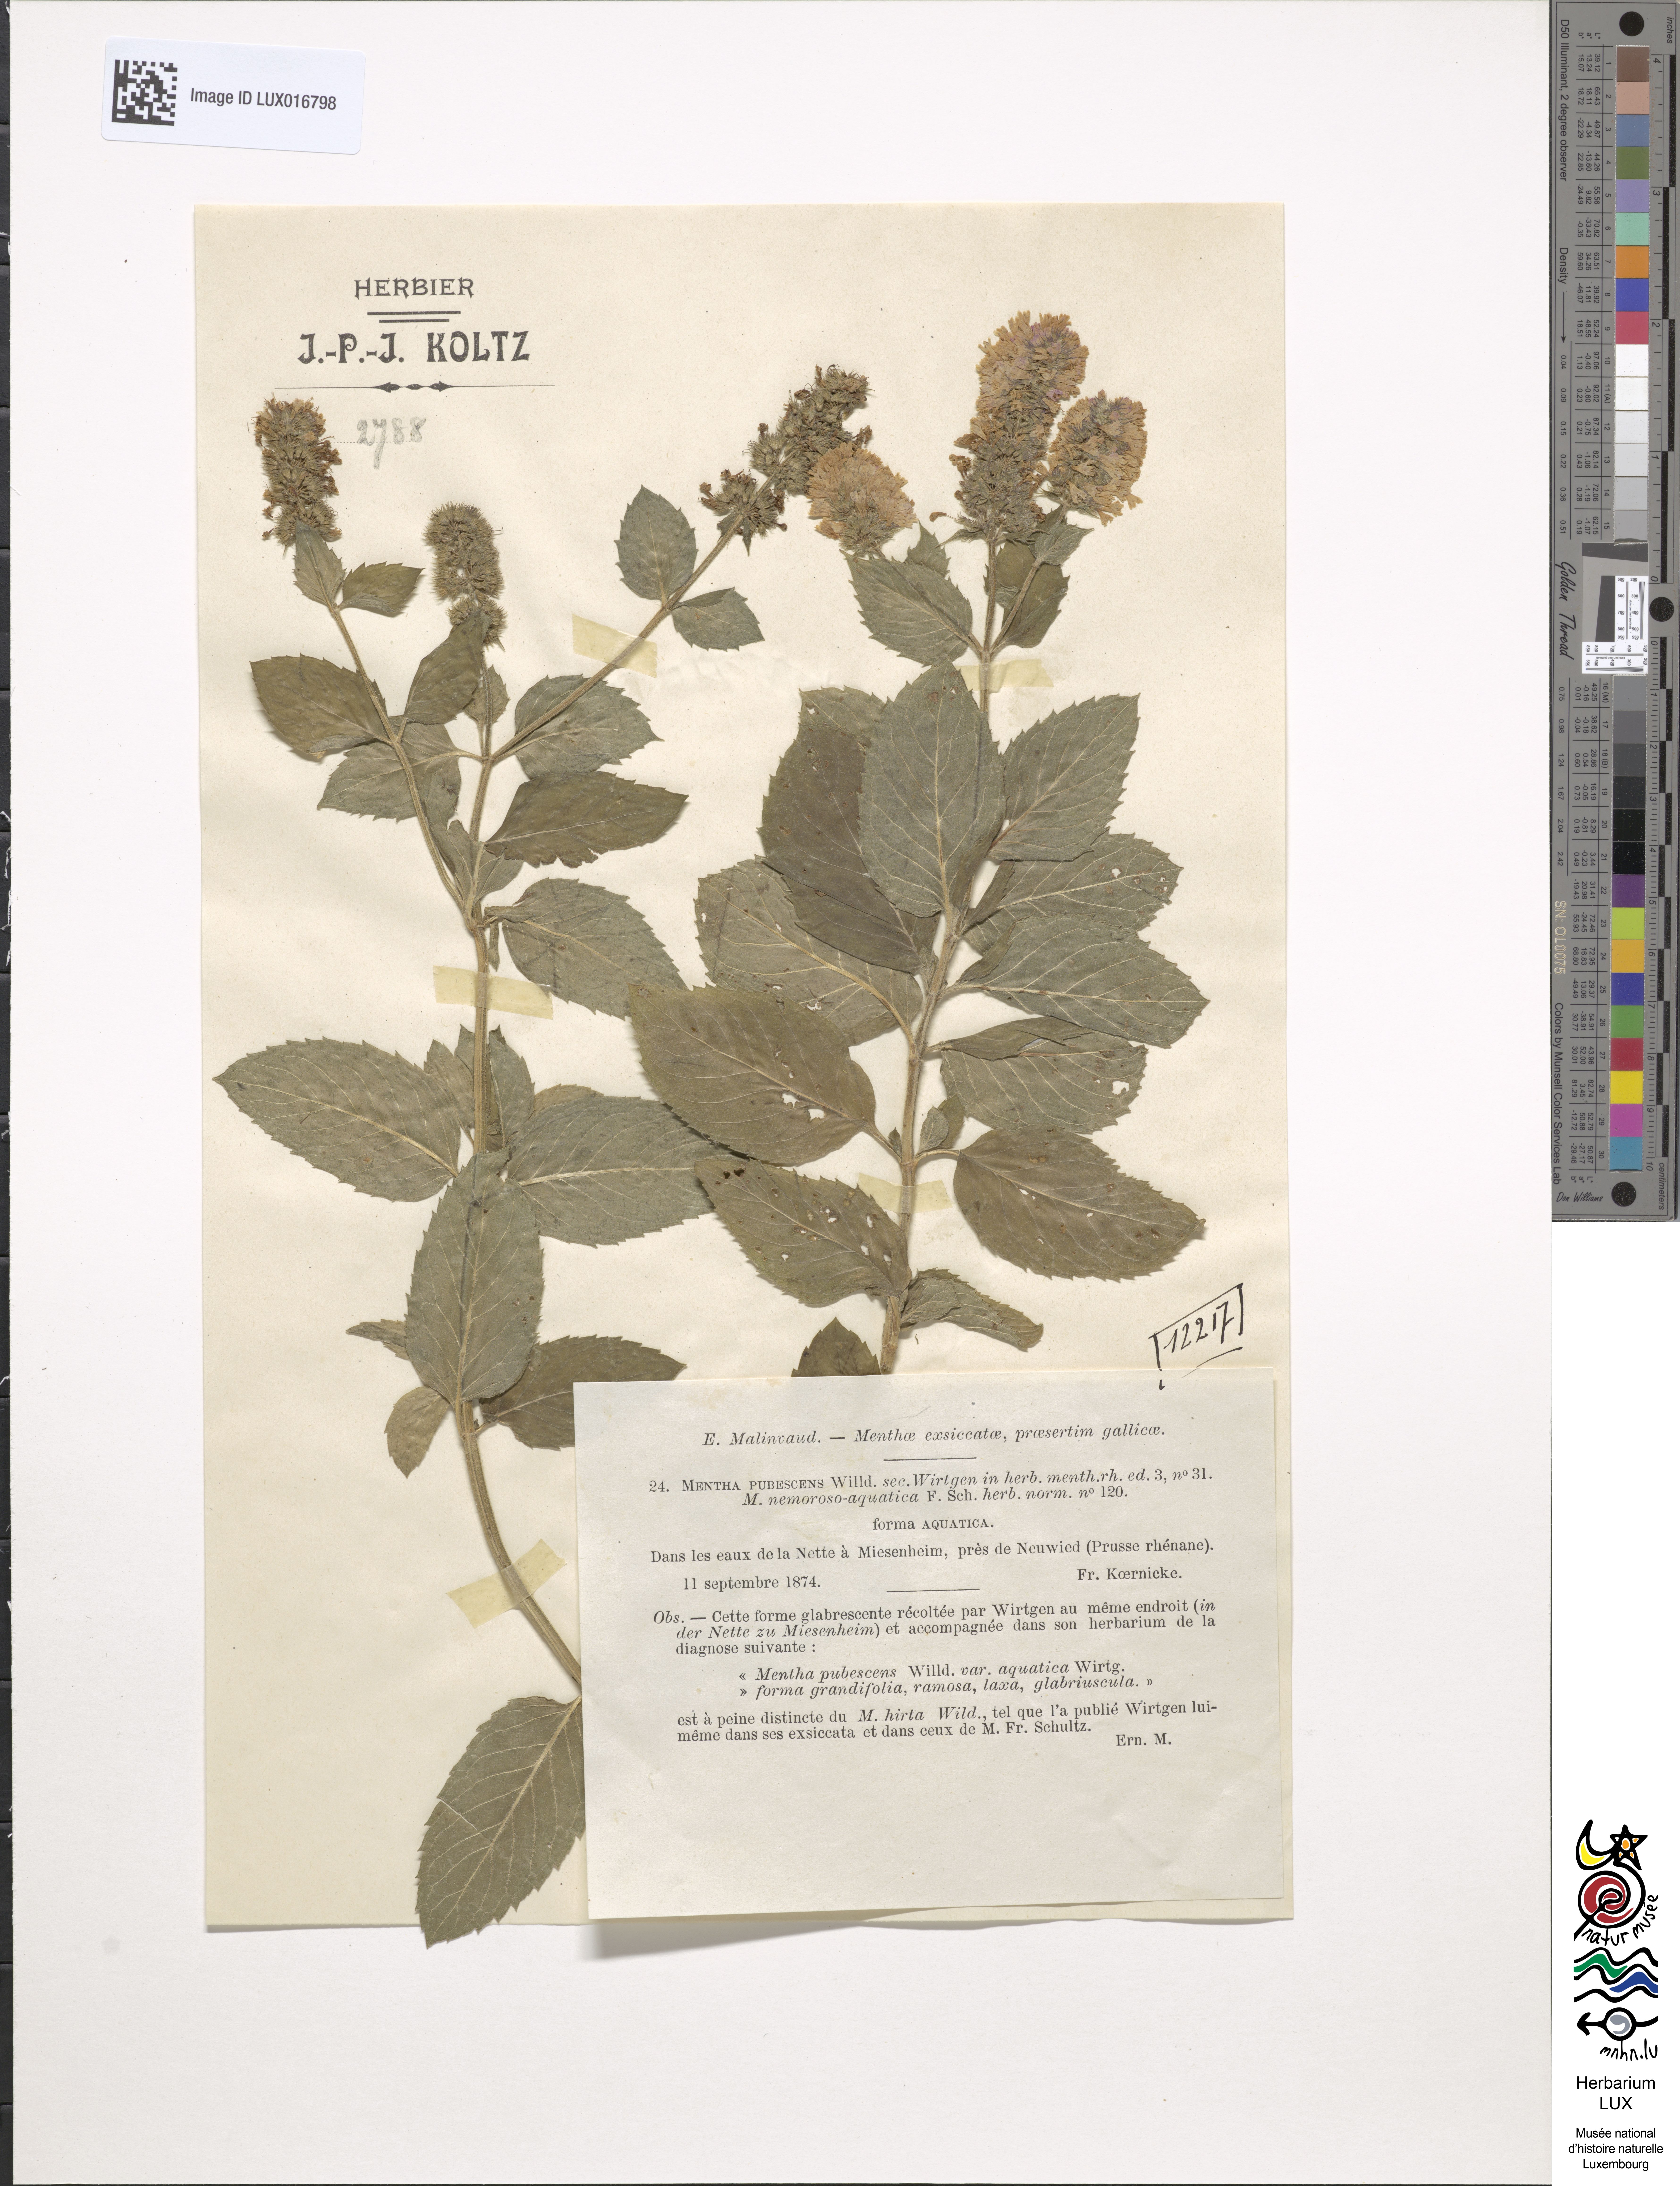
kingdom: Plantae
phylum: Tracheophyta
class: Magnoliopsida
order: Lamiales
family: Lamiaceae
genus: Mentha
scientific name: Mentha dumetorum
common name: Bush-loving mint
